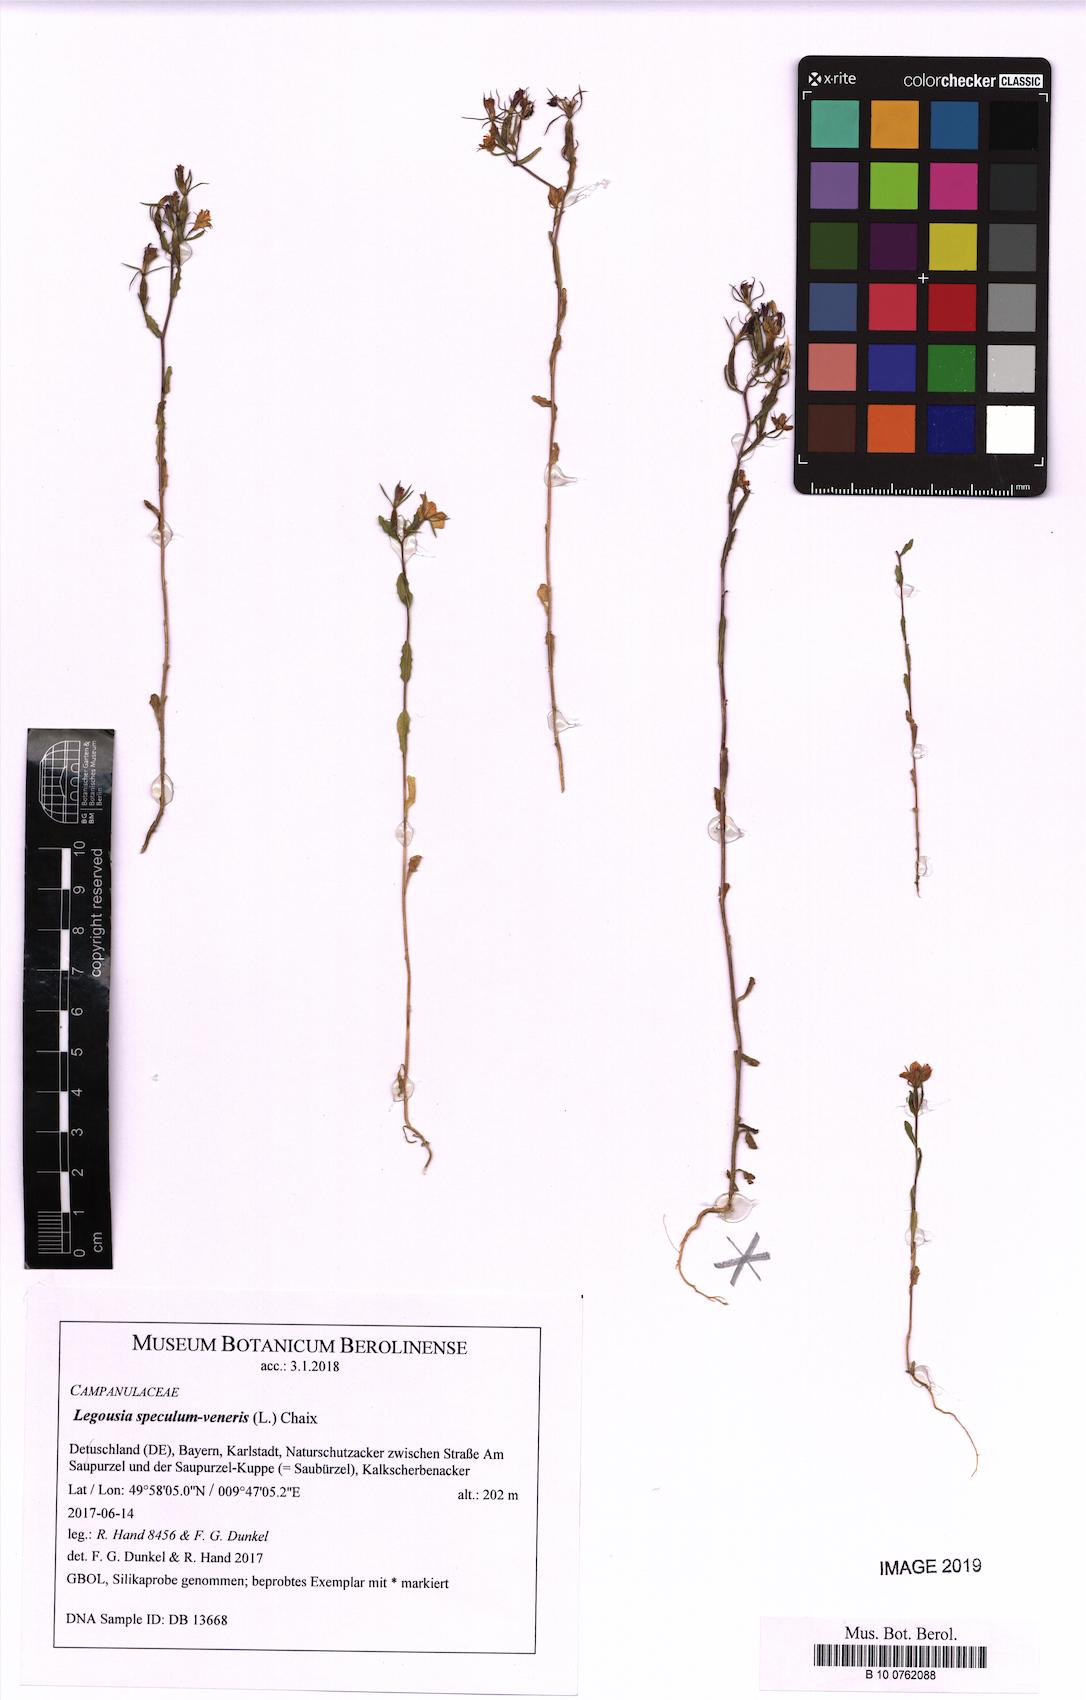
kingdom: Plantae
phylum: Tracheophyta
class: Magnoliopsida
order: Asterales
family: Campanulaceae
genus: Legousia
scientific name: Legousia speculum-veneris
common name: Large venus's-looking-glass
